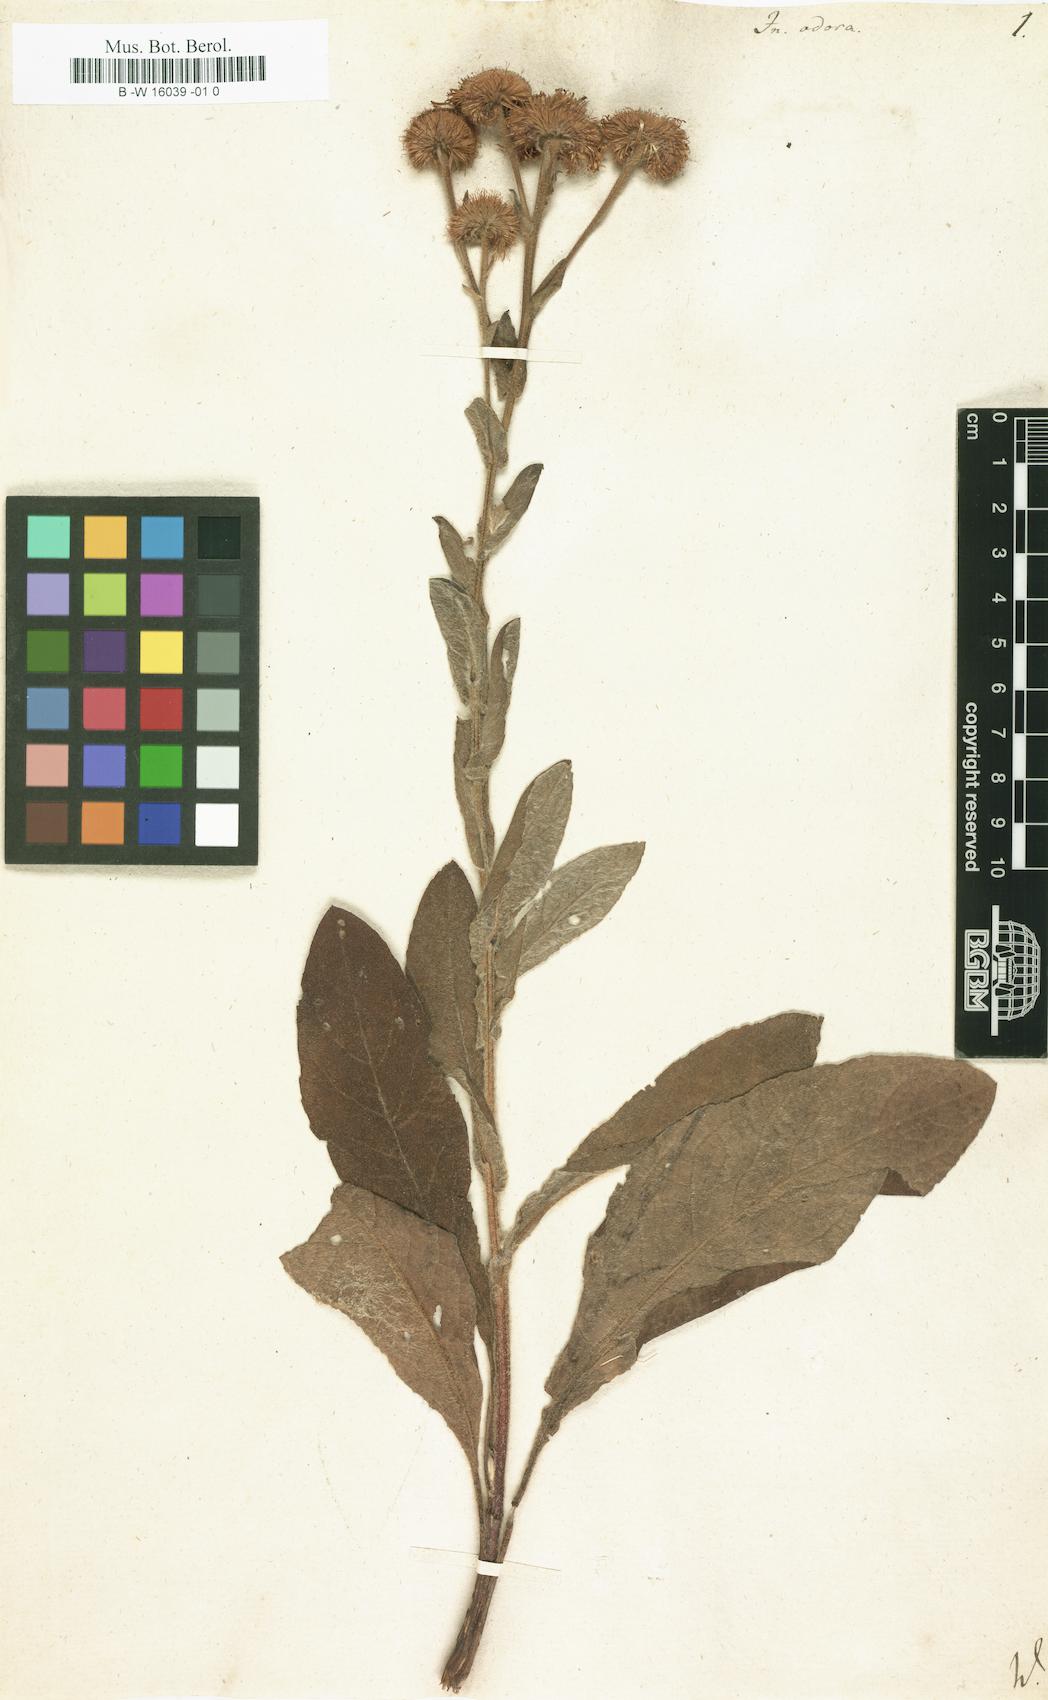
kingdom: Plantae
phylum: Tracheophyta
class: Magnoliopsida
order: Asterales
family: Asteraceae
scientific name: Asteraceae
